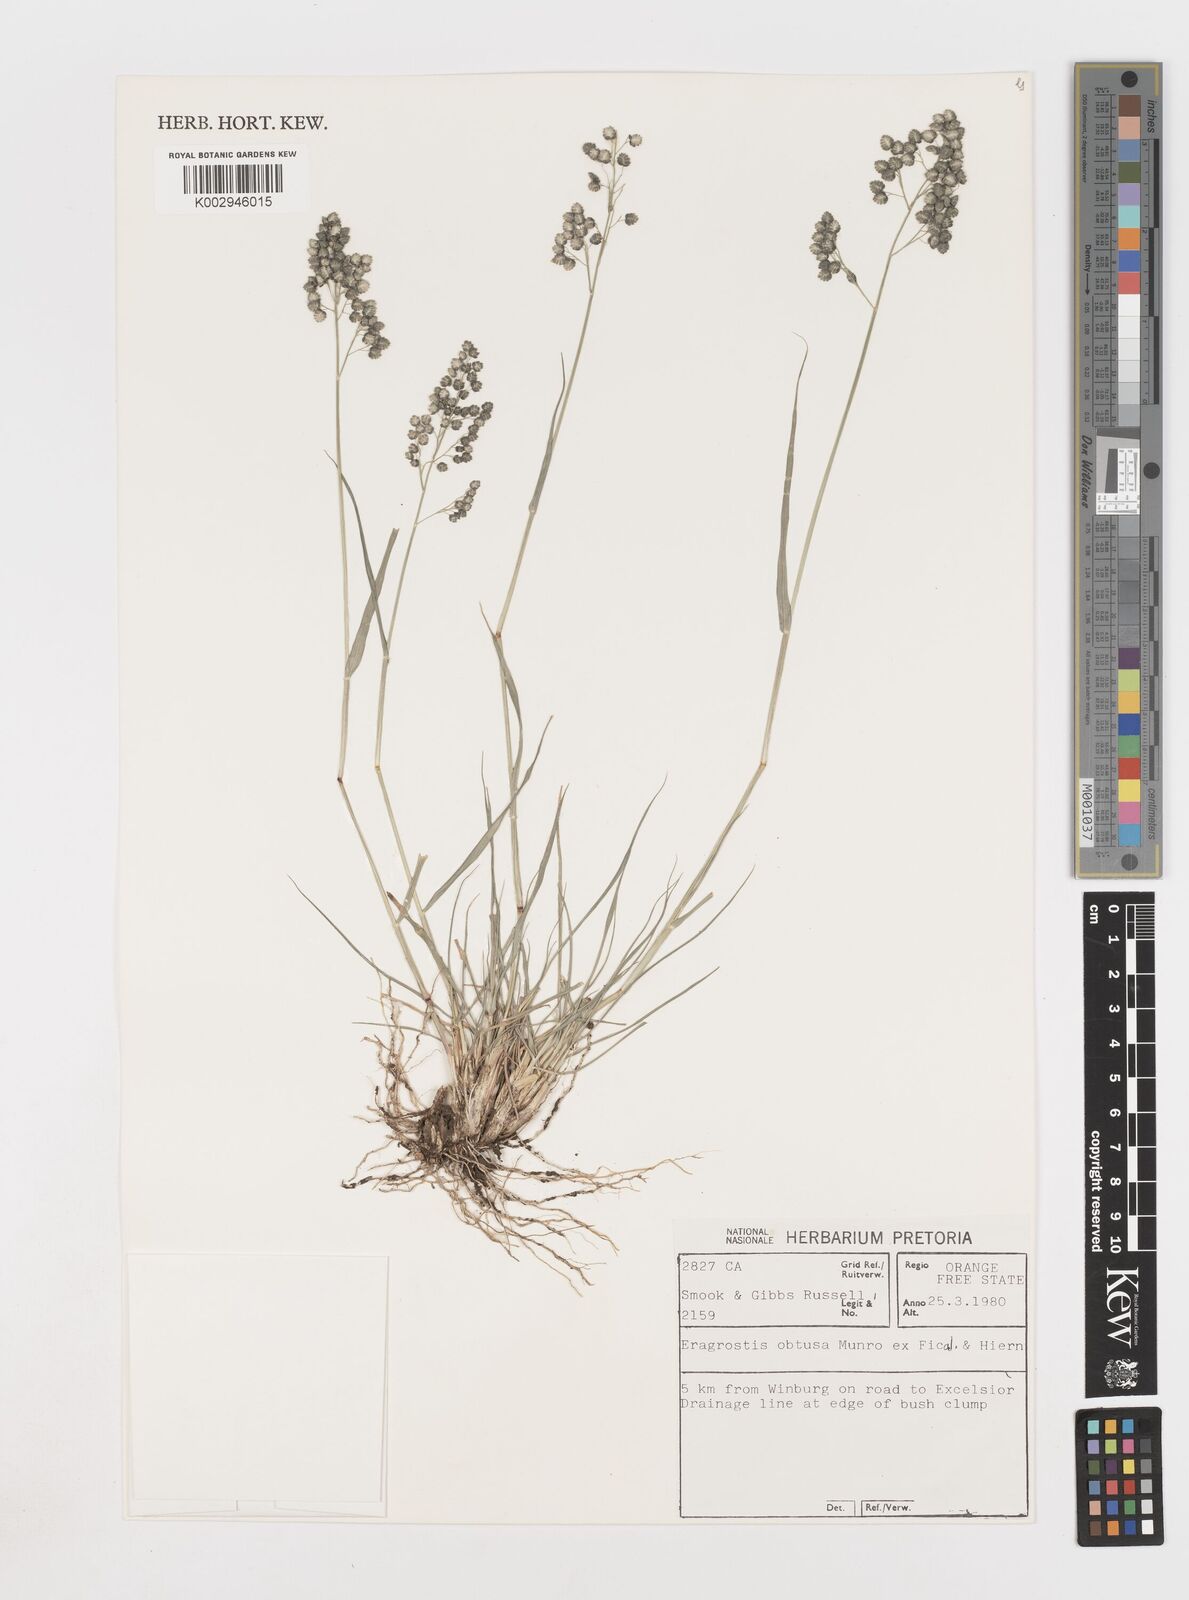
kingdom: Plantae
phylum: Tracheophyta
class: Liliopsida
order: Poales
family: Poaceae
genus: Eragrostis
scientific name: Eragrostis obtusa
